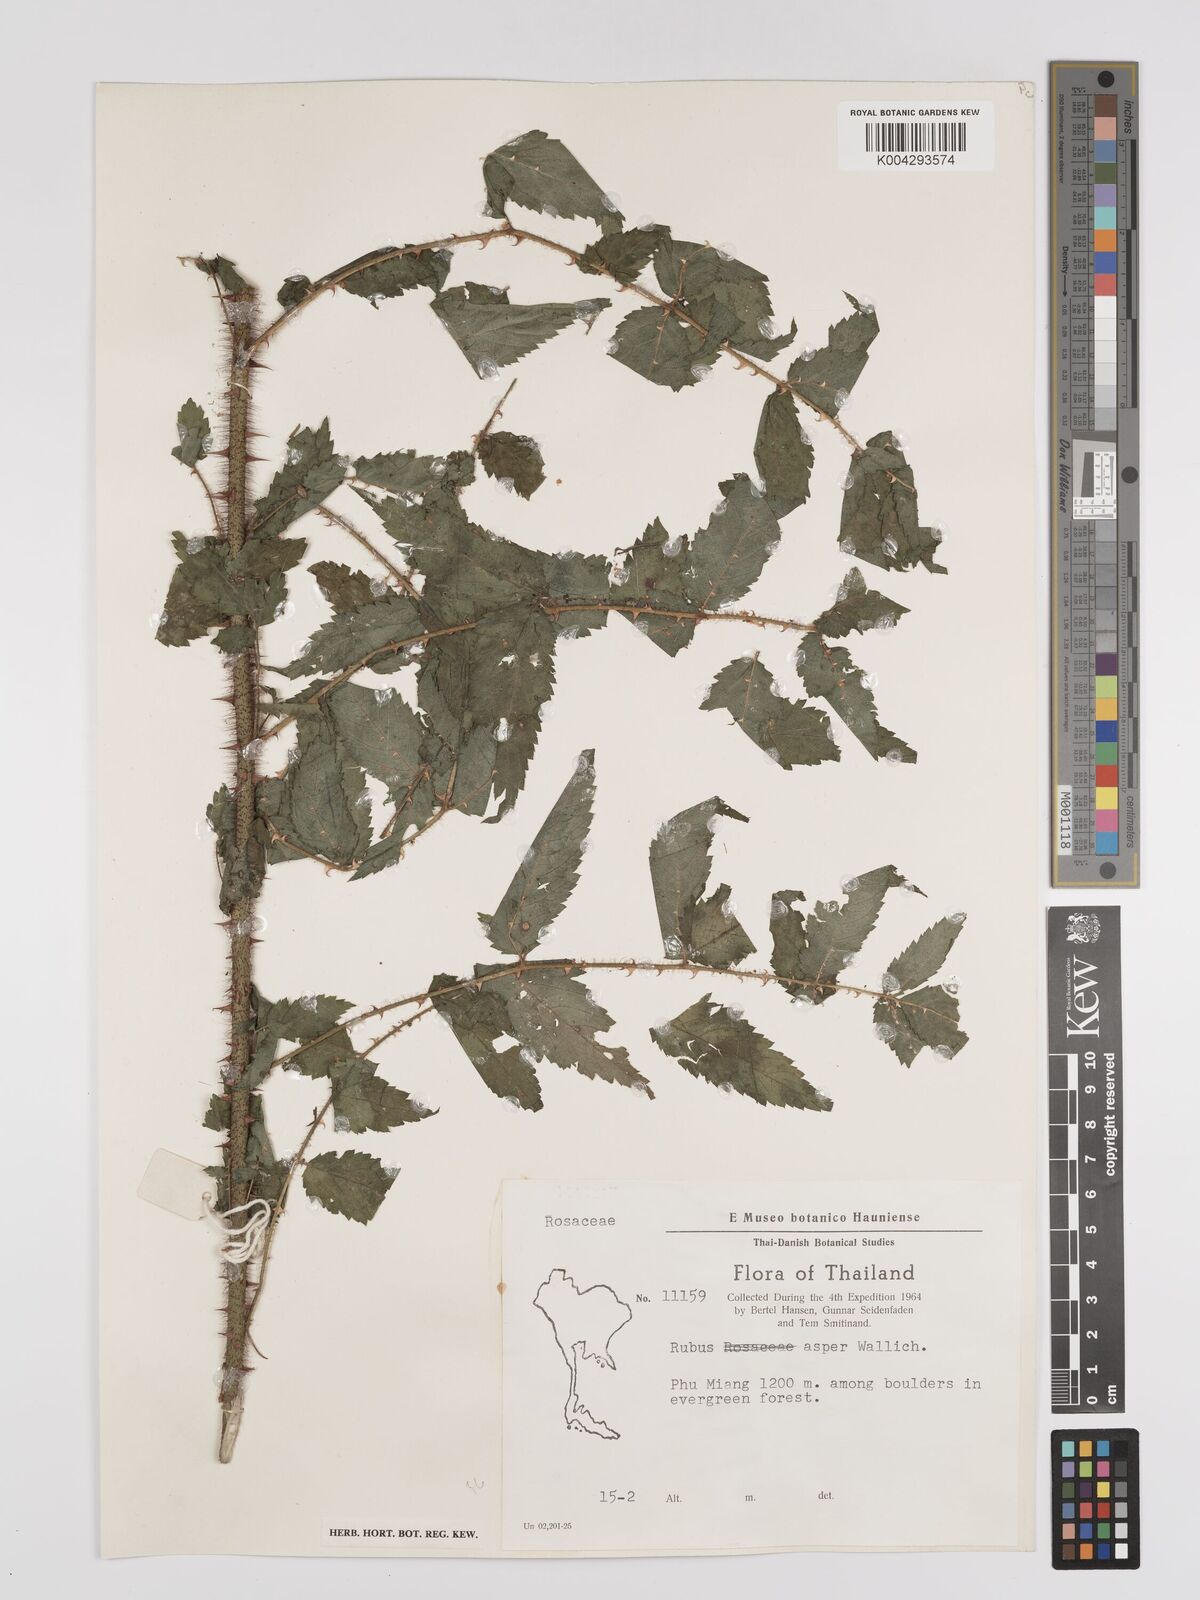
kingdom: Plantae
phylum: Tracheophyta
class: Magnoliopsida
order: Rosales
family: Rosaceae
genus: Rubus
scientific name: Rubus sumatranus
